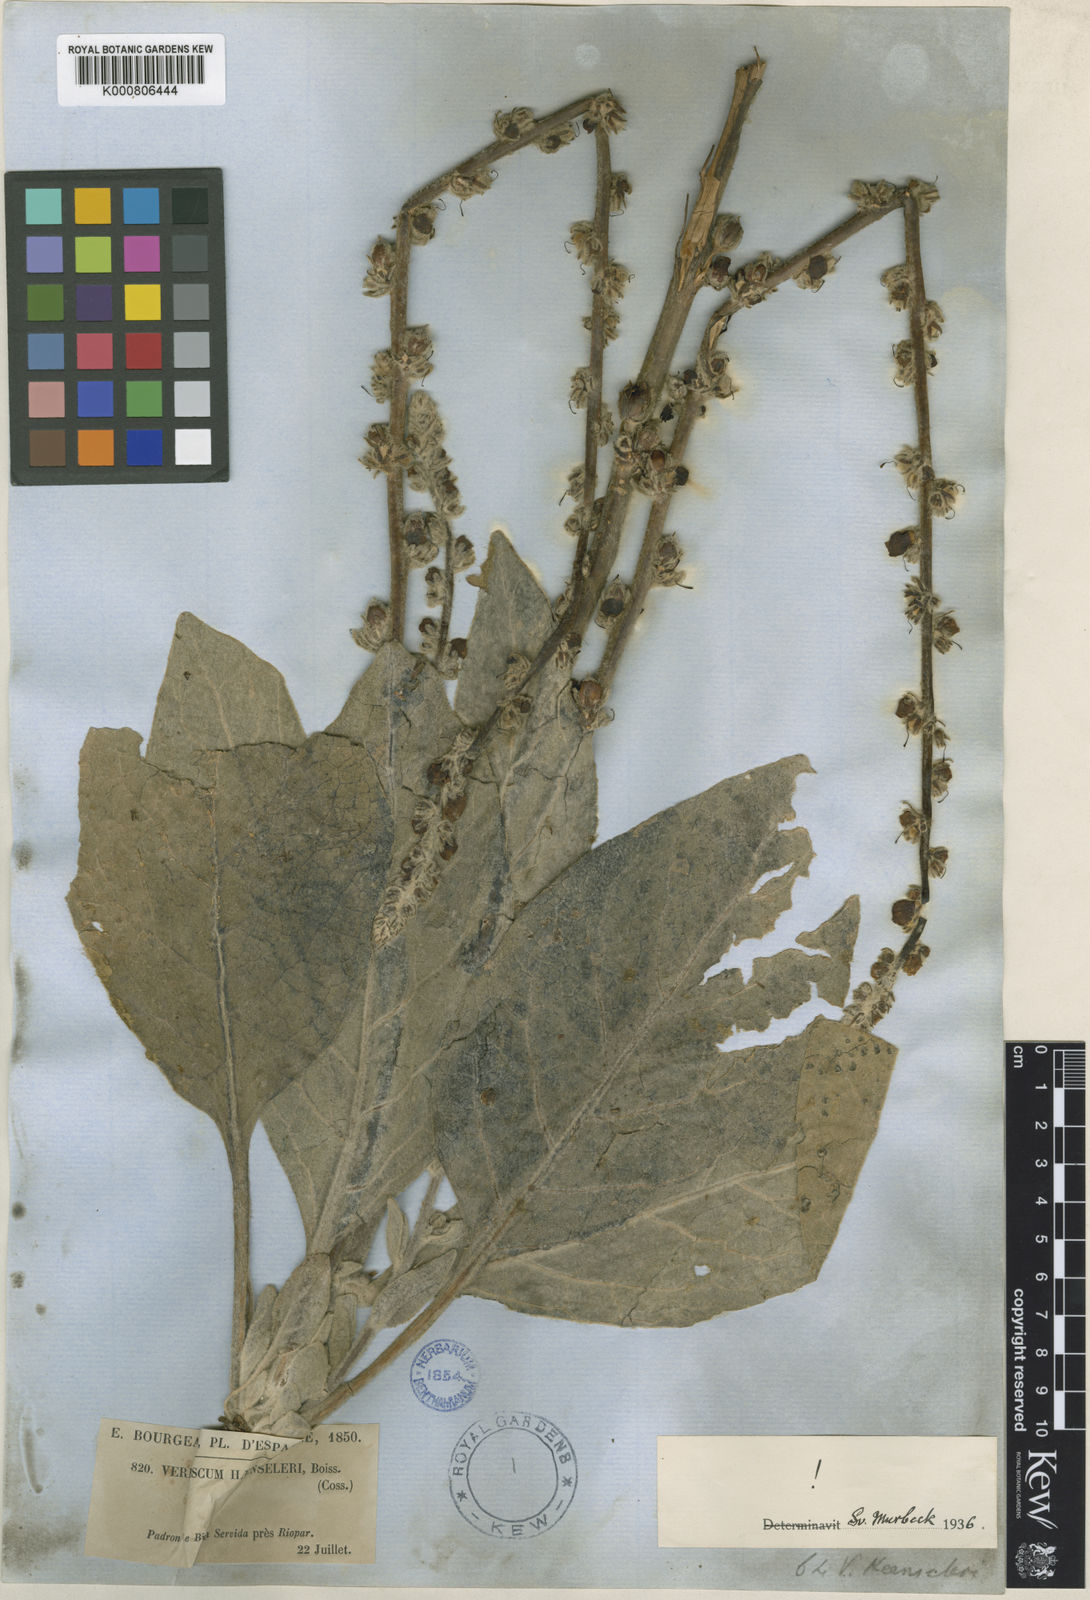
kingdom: Plantae
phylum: Tracheophyta
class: Magnoliopsida
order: Lamiales
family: Scrophulariaceae
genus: Verbascum
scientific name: Verbascum rotundifolium
